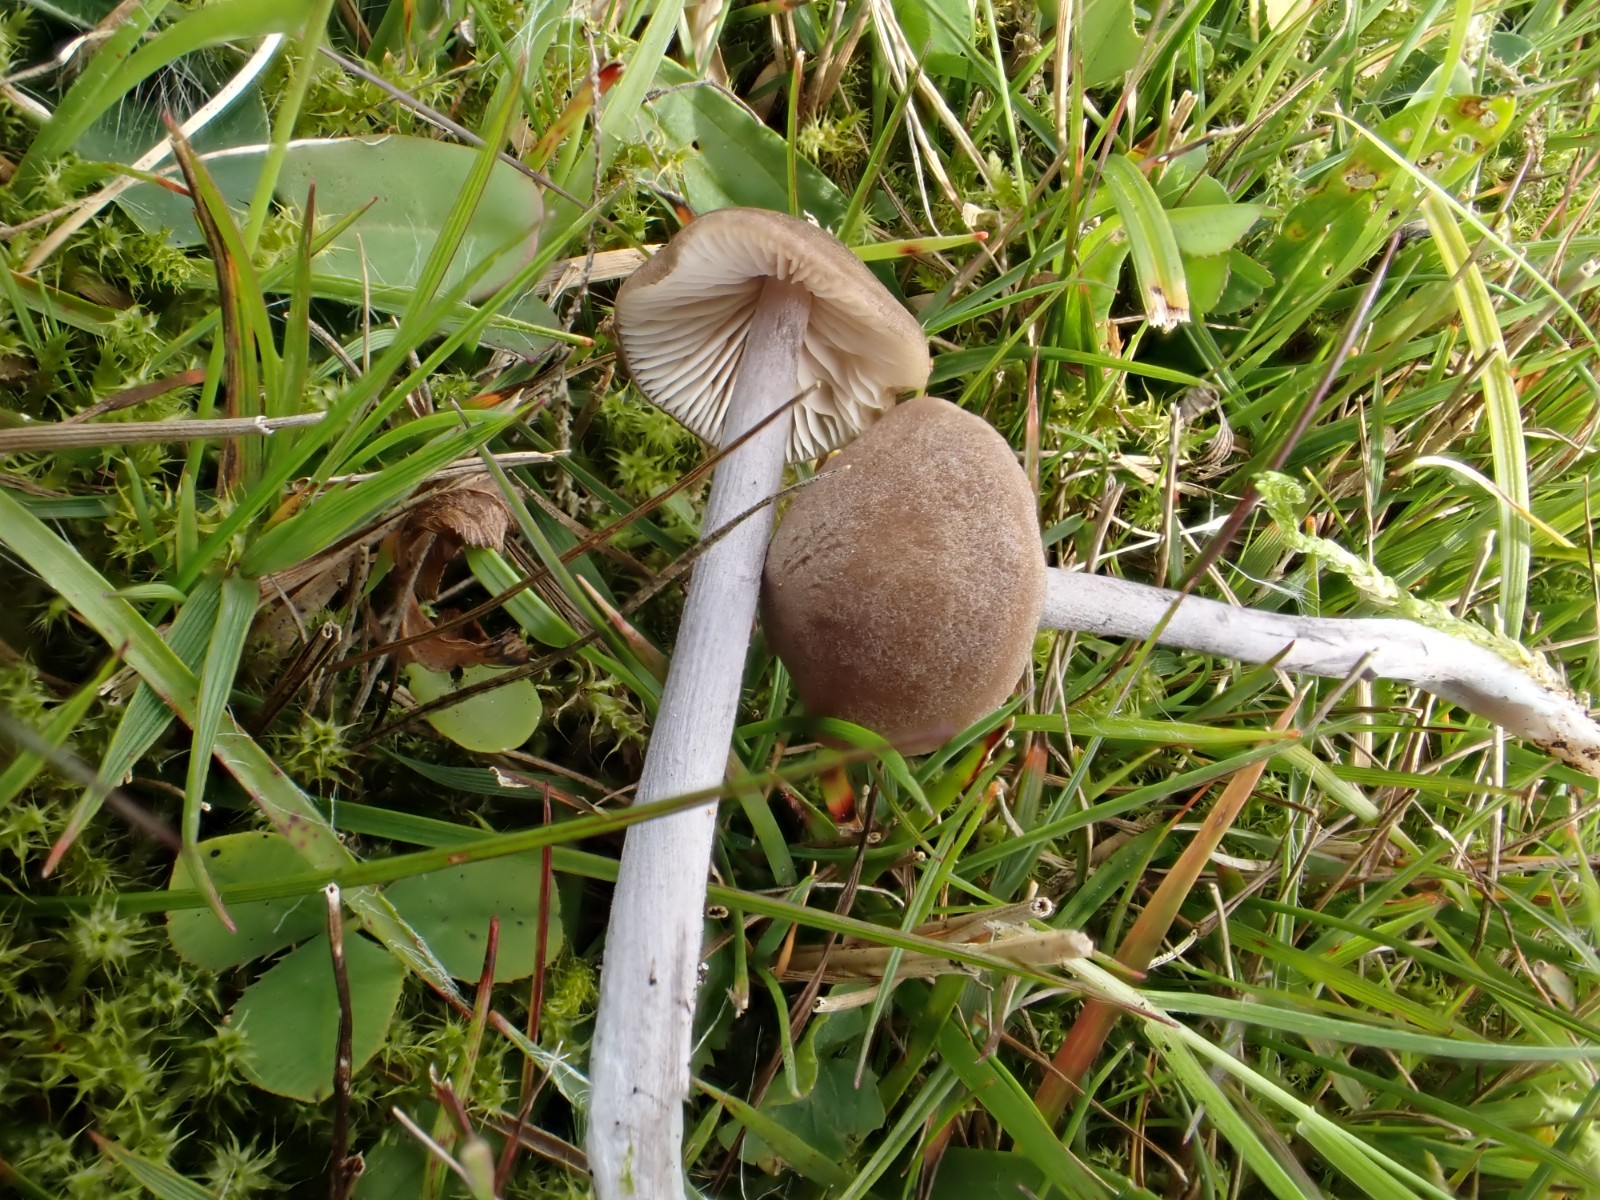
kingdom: Fungi
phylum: Basidiomycota
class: Agaricomycetes
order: Agaricales
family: Entolomataceae
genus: Entoloma
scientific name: Entoloma griseocyaneum
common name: gråblå rødblad
